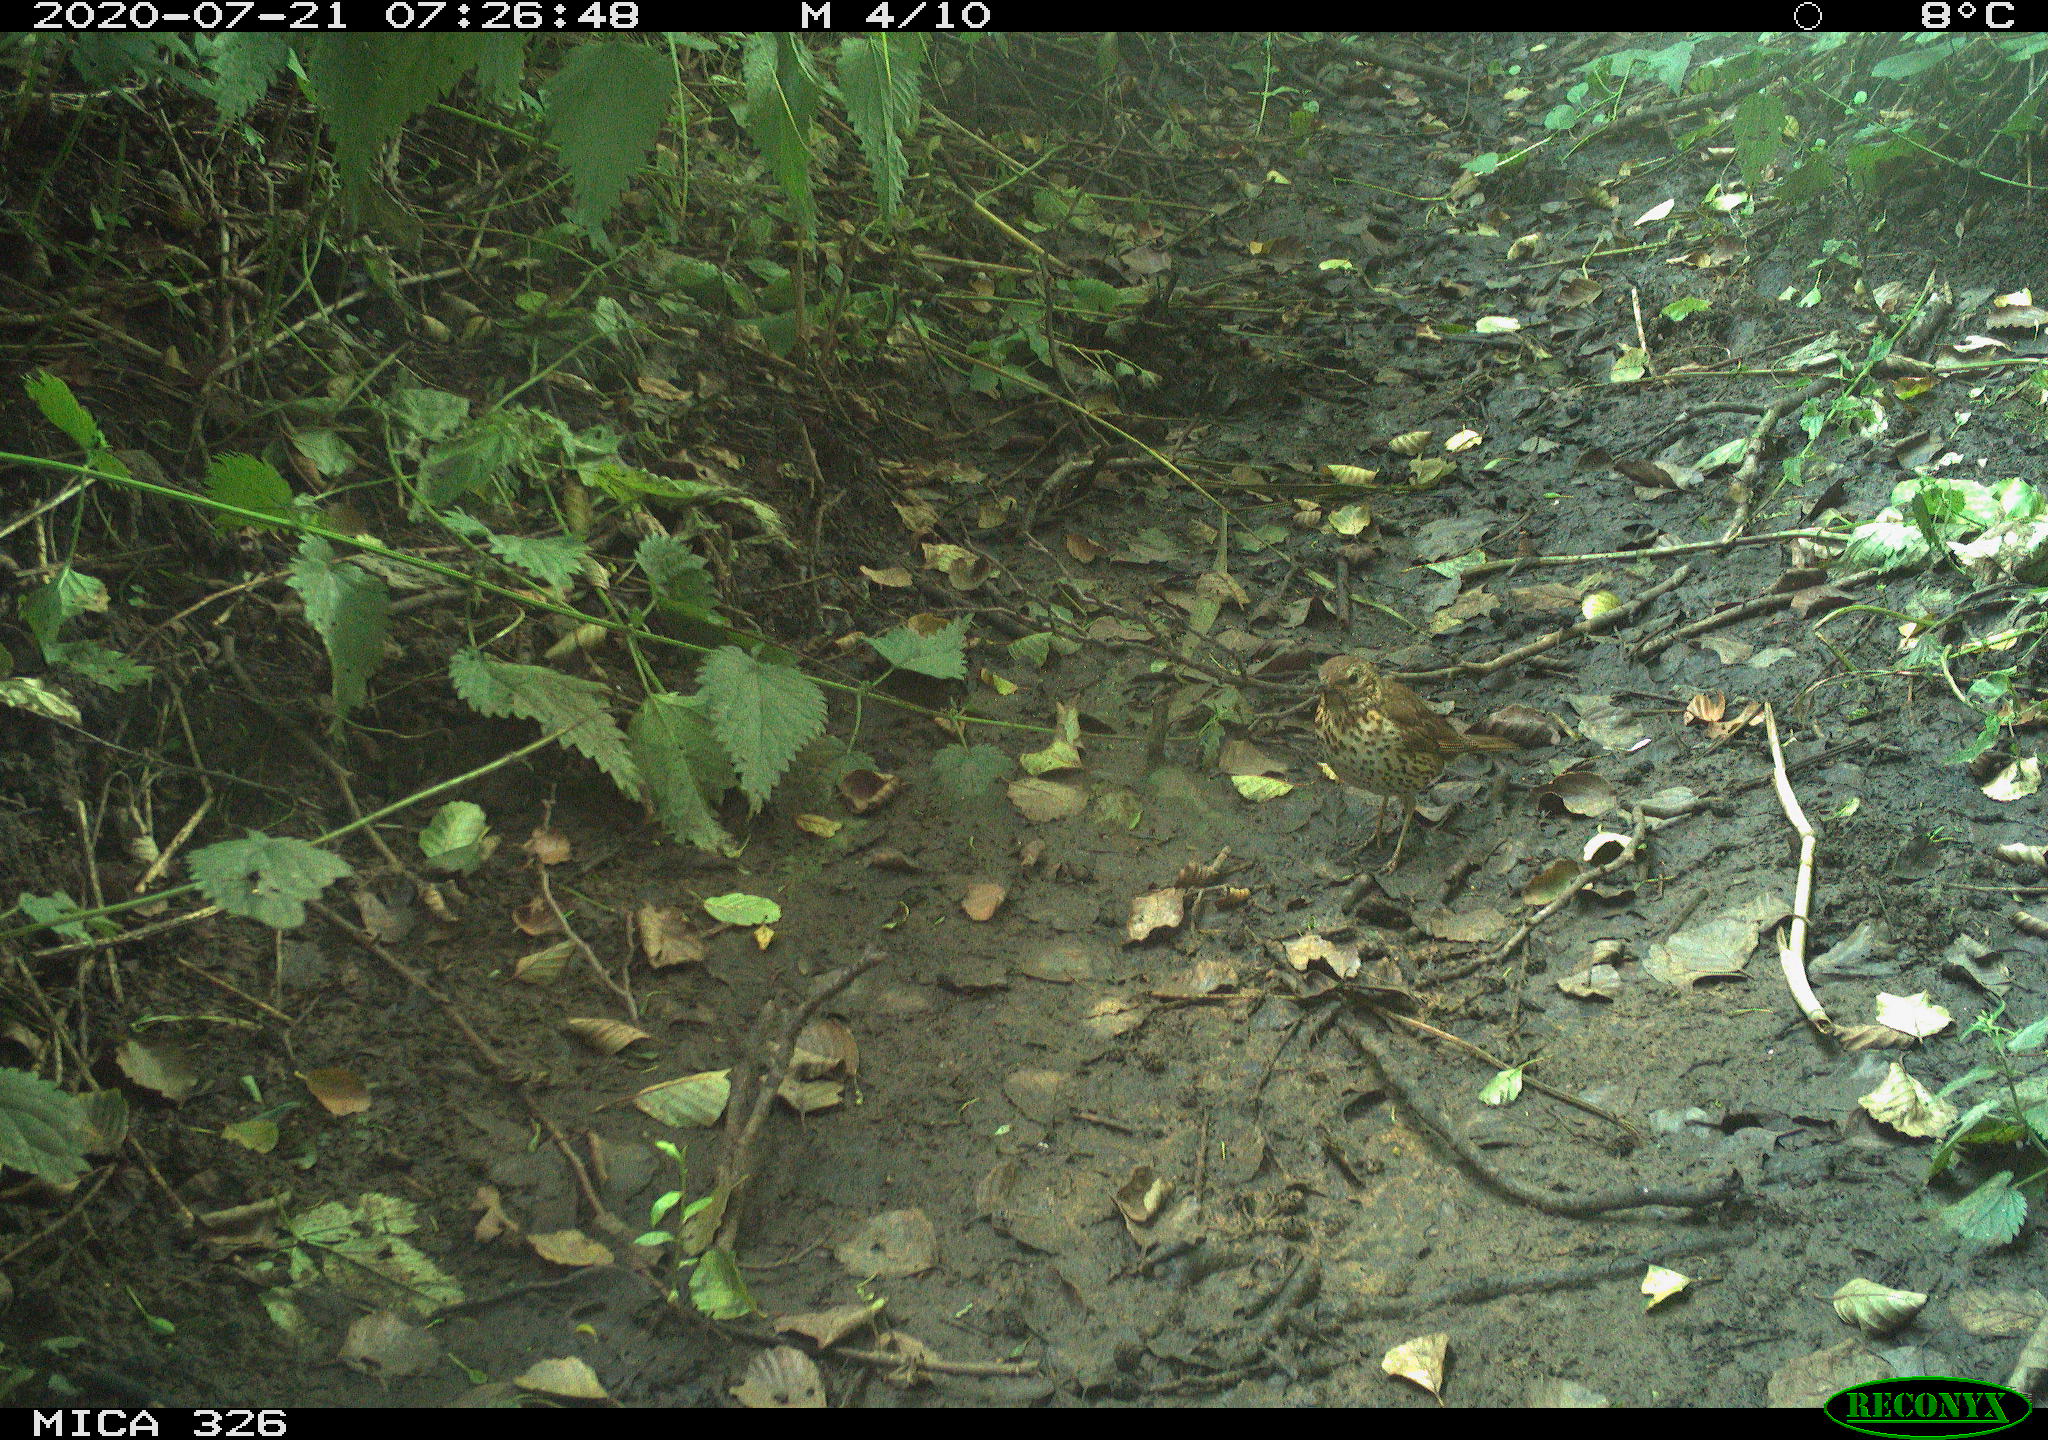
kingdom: Animalia
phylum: Chordata
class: Aves
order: Passeriformes
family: Turdidae
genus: Turdus
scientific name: Turdus philomelos
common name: Song thrush
